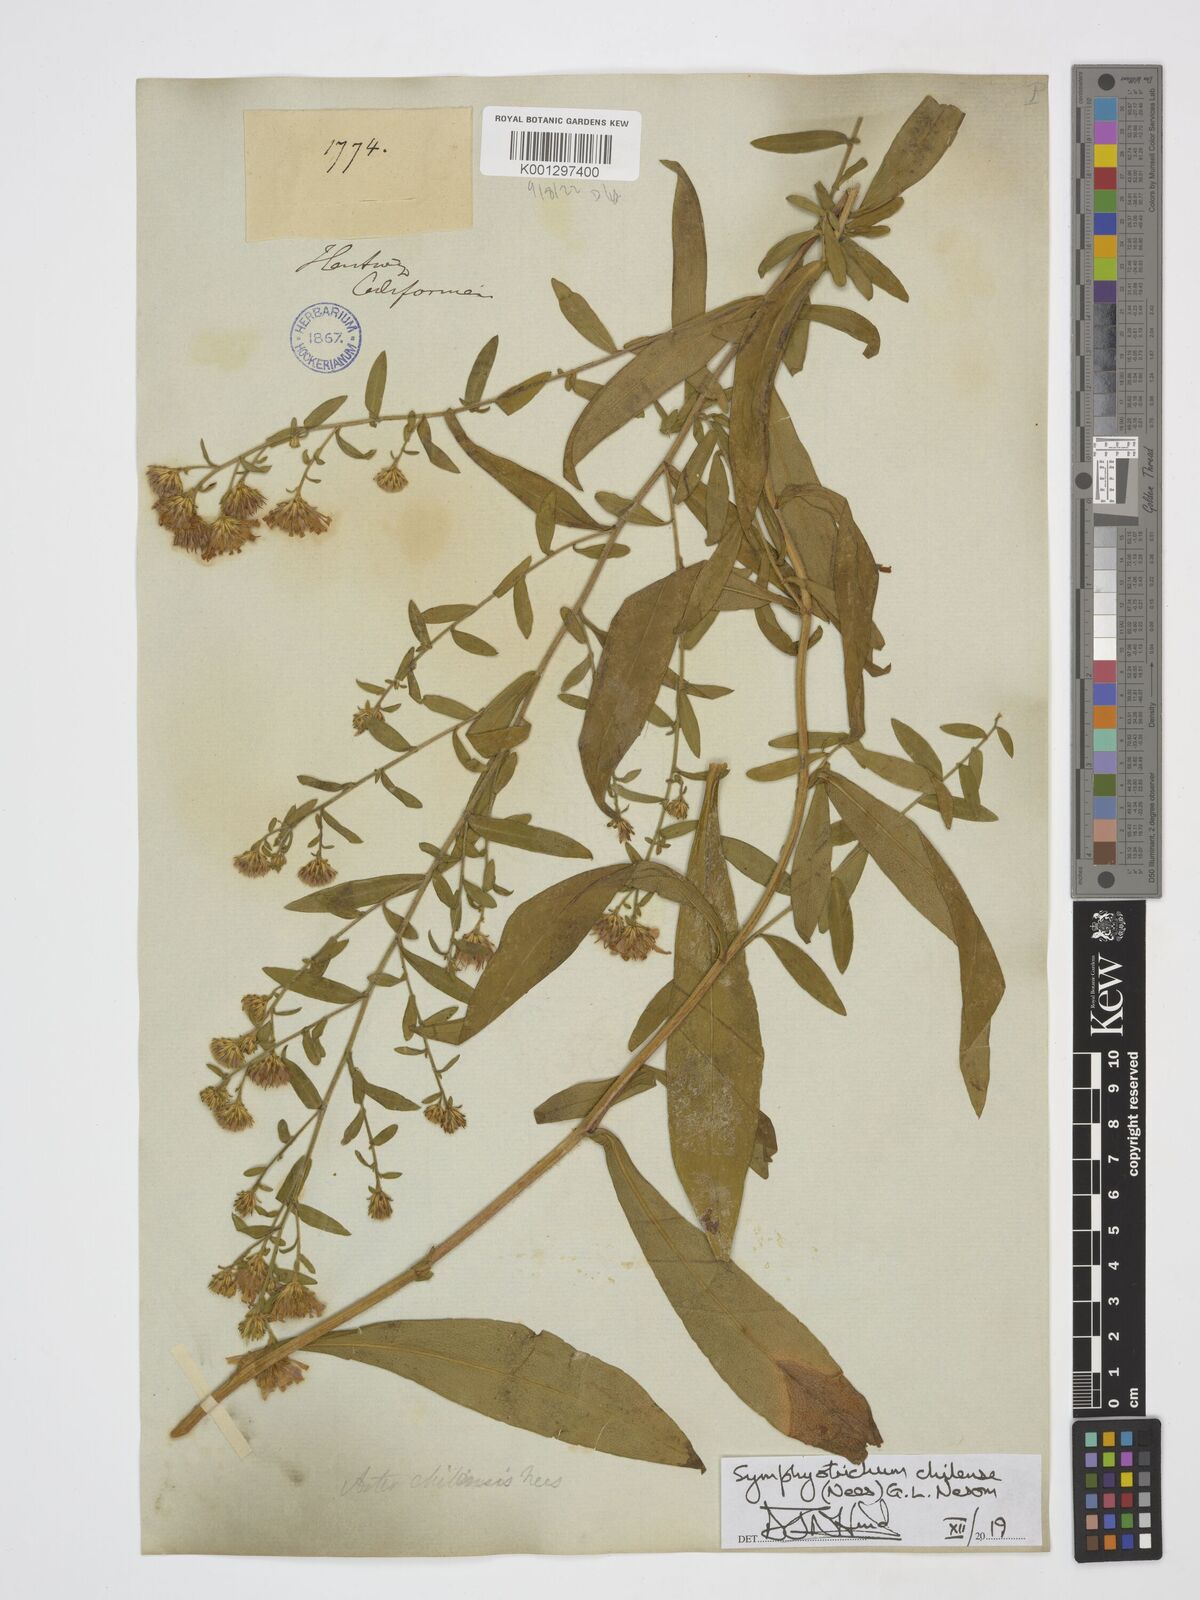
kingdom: Plantae
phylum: Tracheophyta
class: Magnoliopsida
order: Asterales
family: Asteraceae
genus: Symphyotrichum
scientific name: Symphyotrichum chilense
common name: Pacific aster
